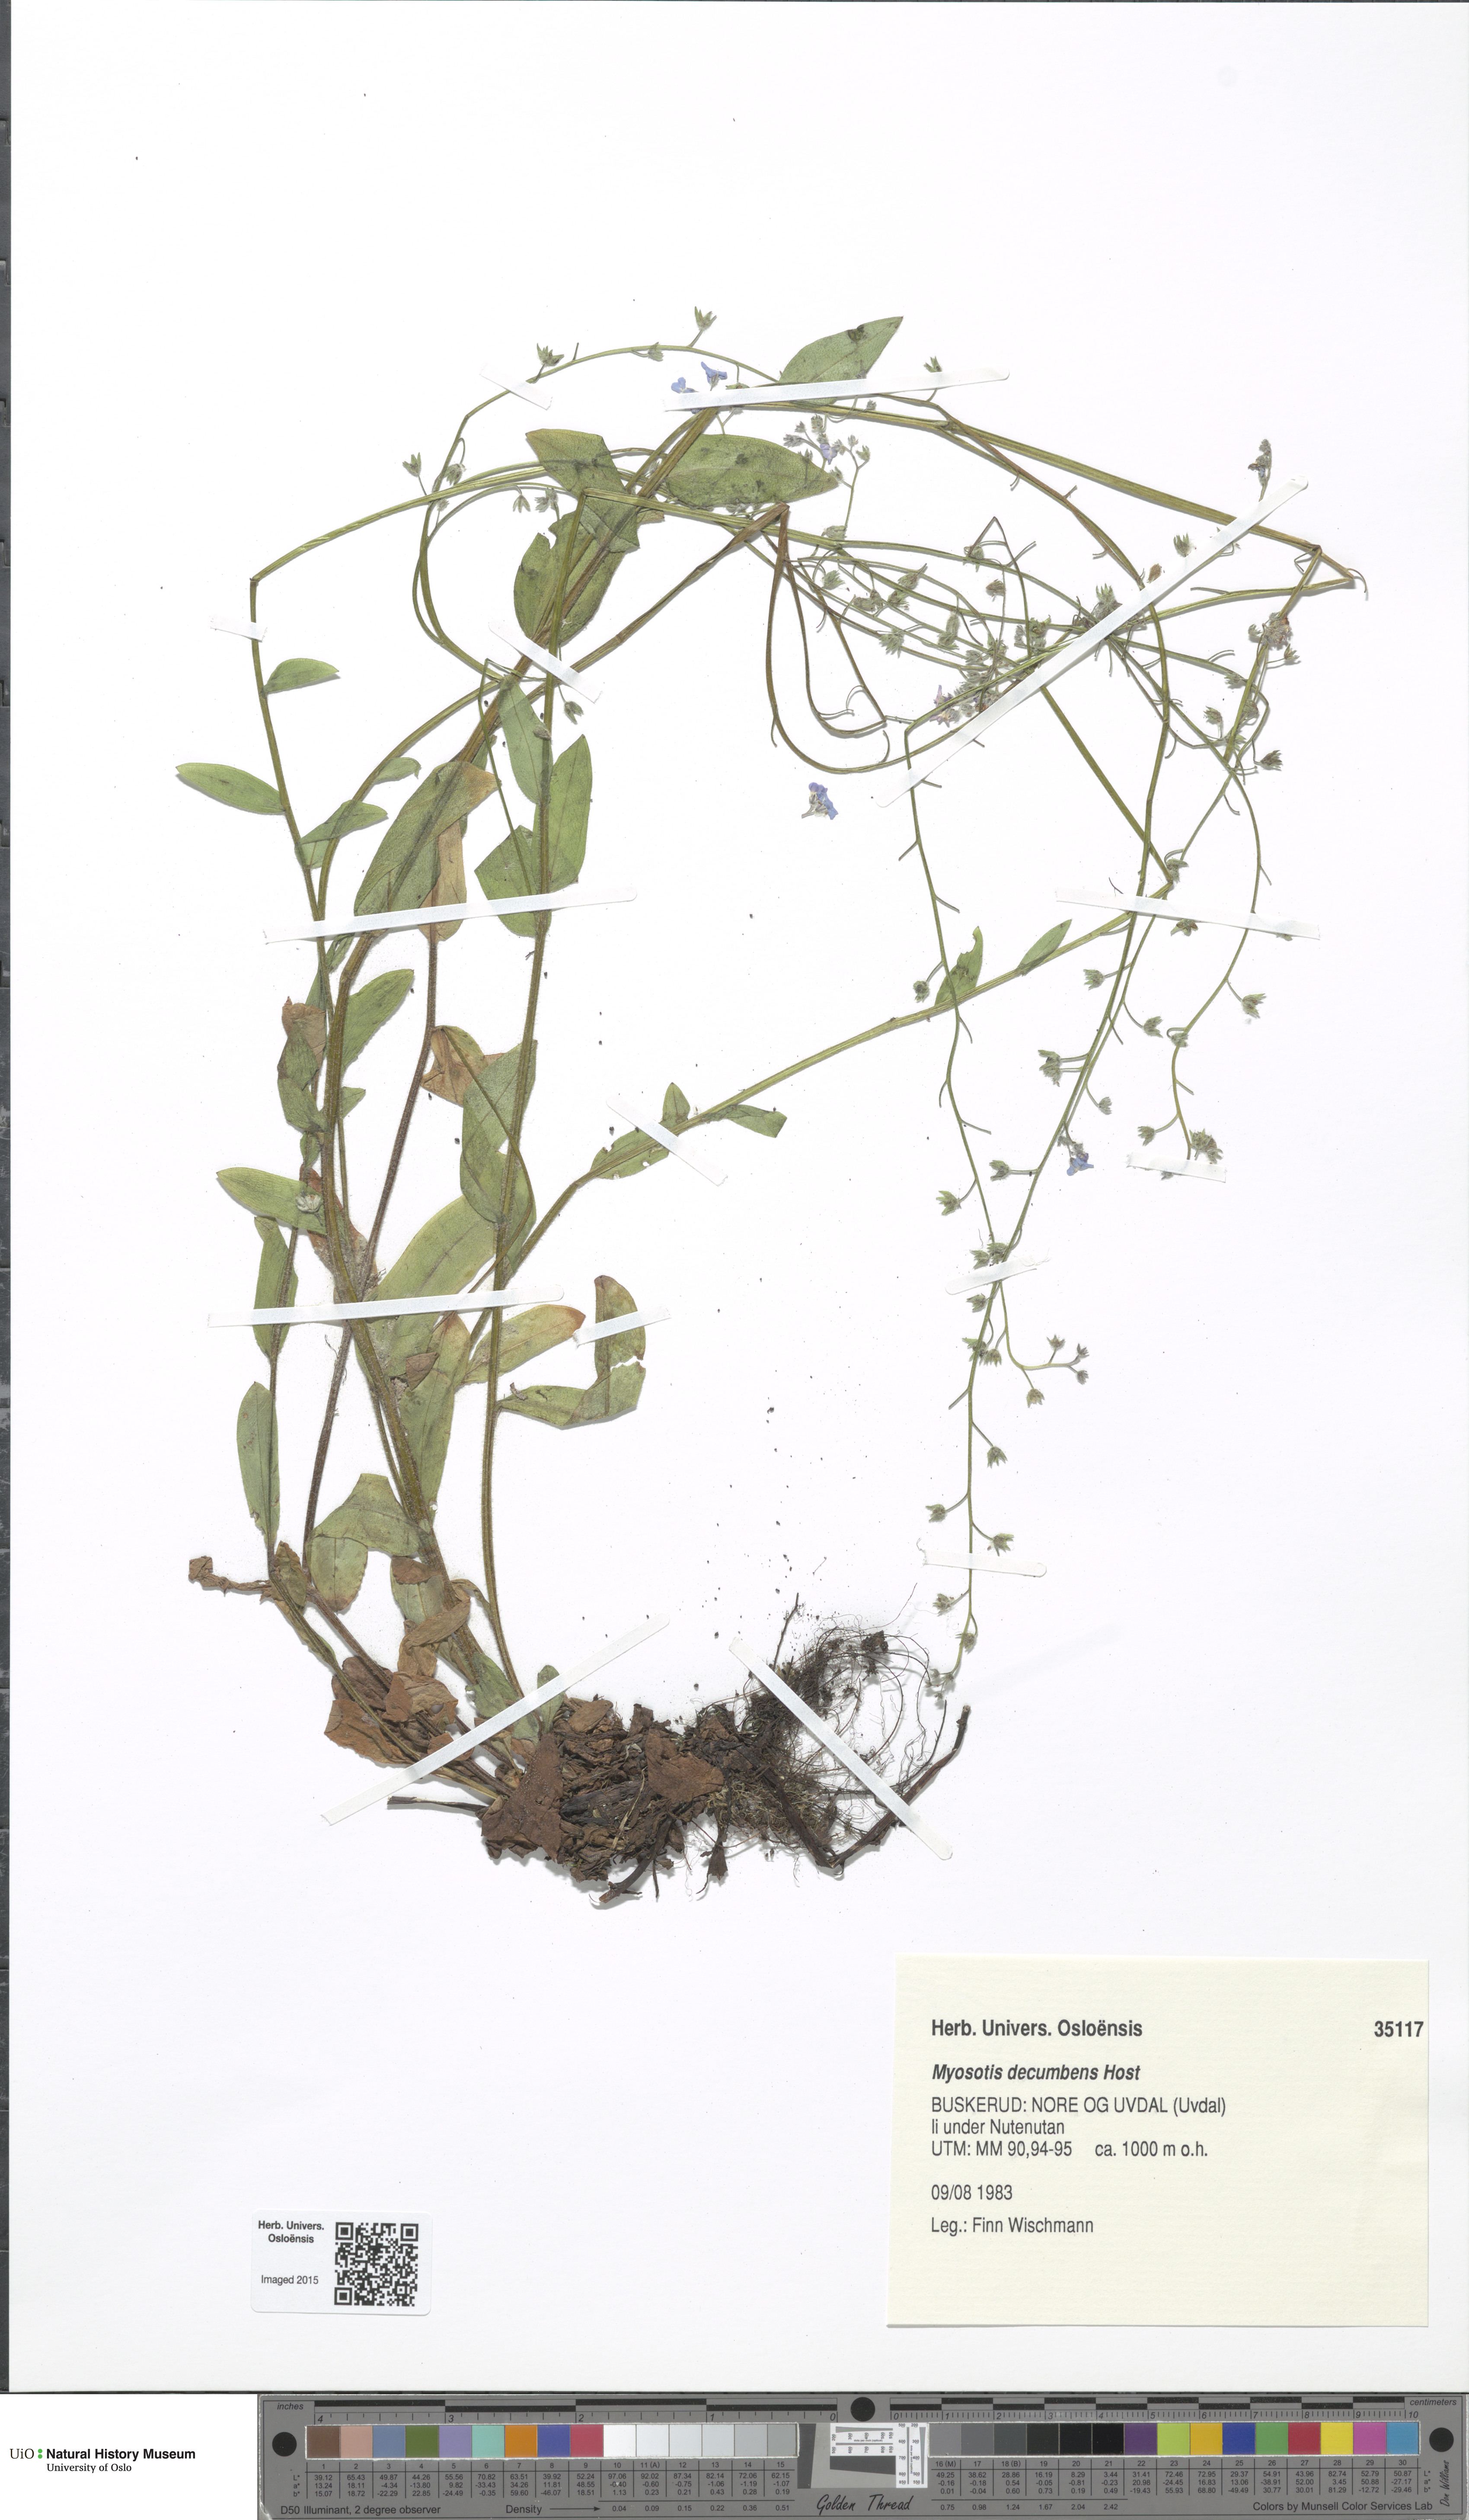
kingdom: Plantae
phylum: Tracheophyta
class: Magnoliopsida
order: Boraginales
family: Boraginaceae
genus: Myosotis
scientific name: Myosotis decumbens
